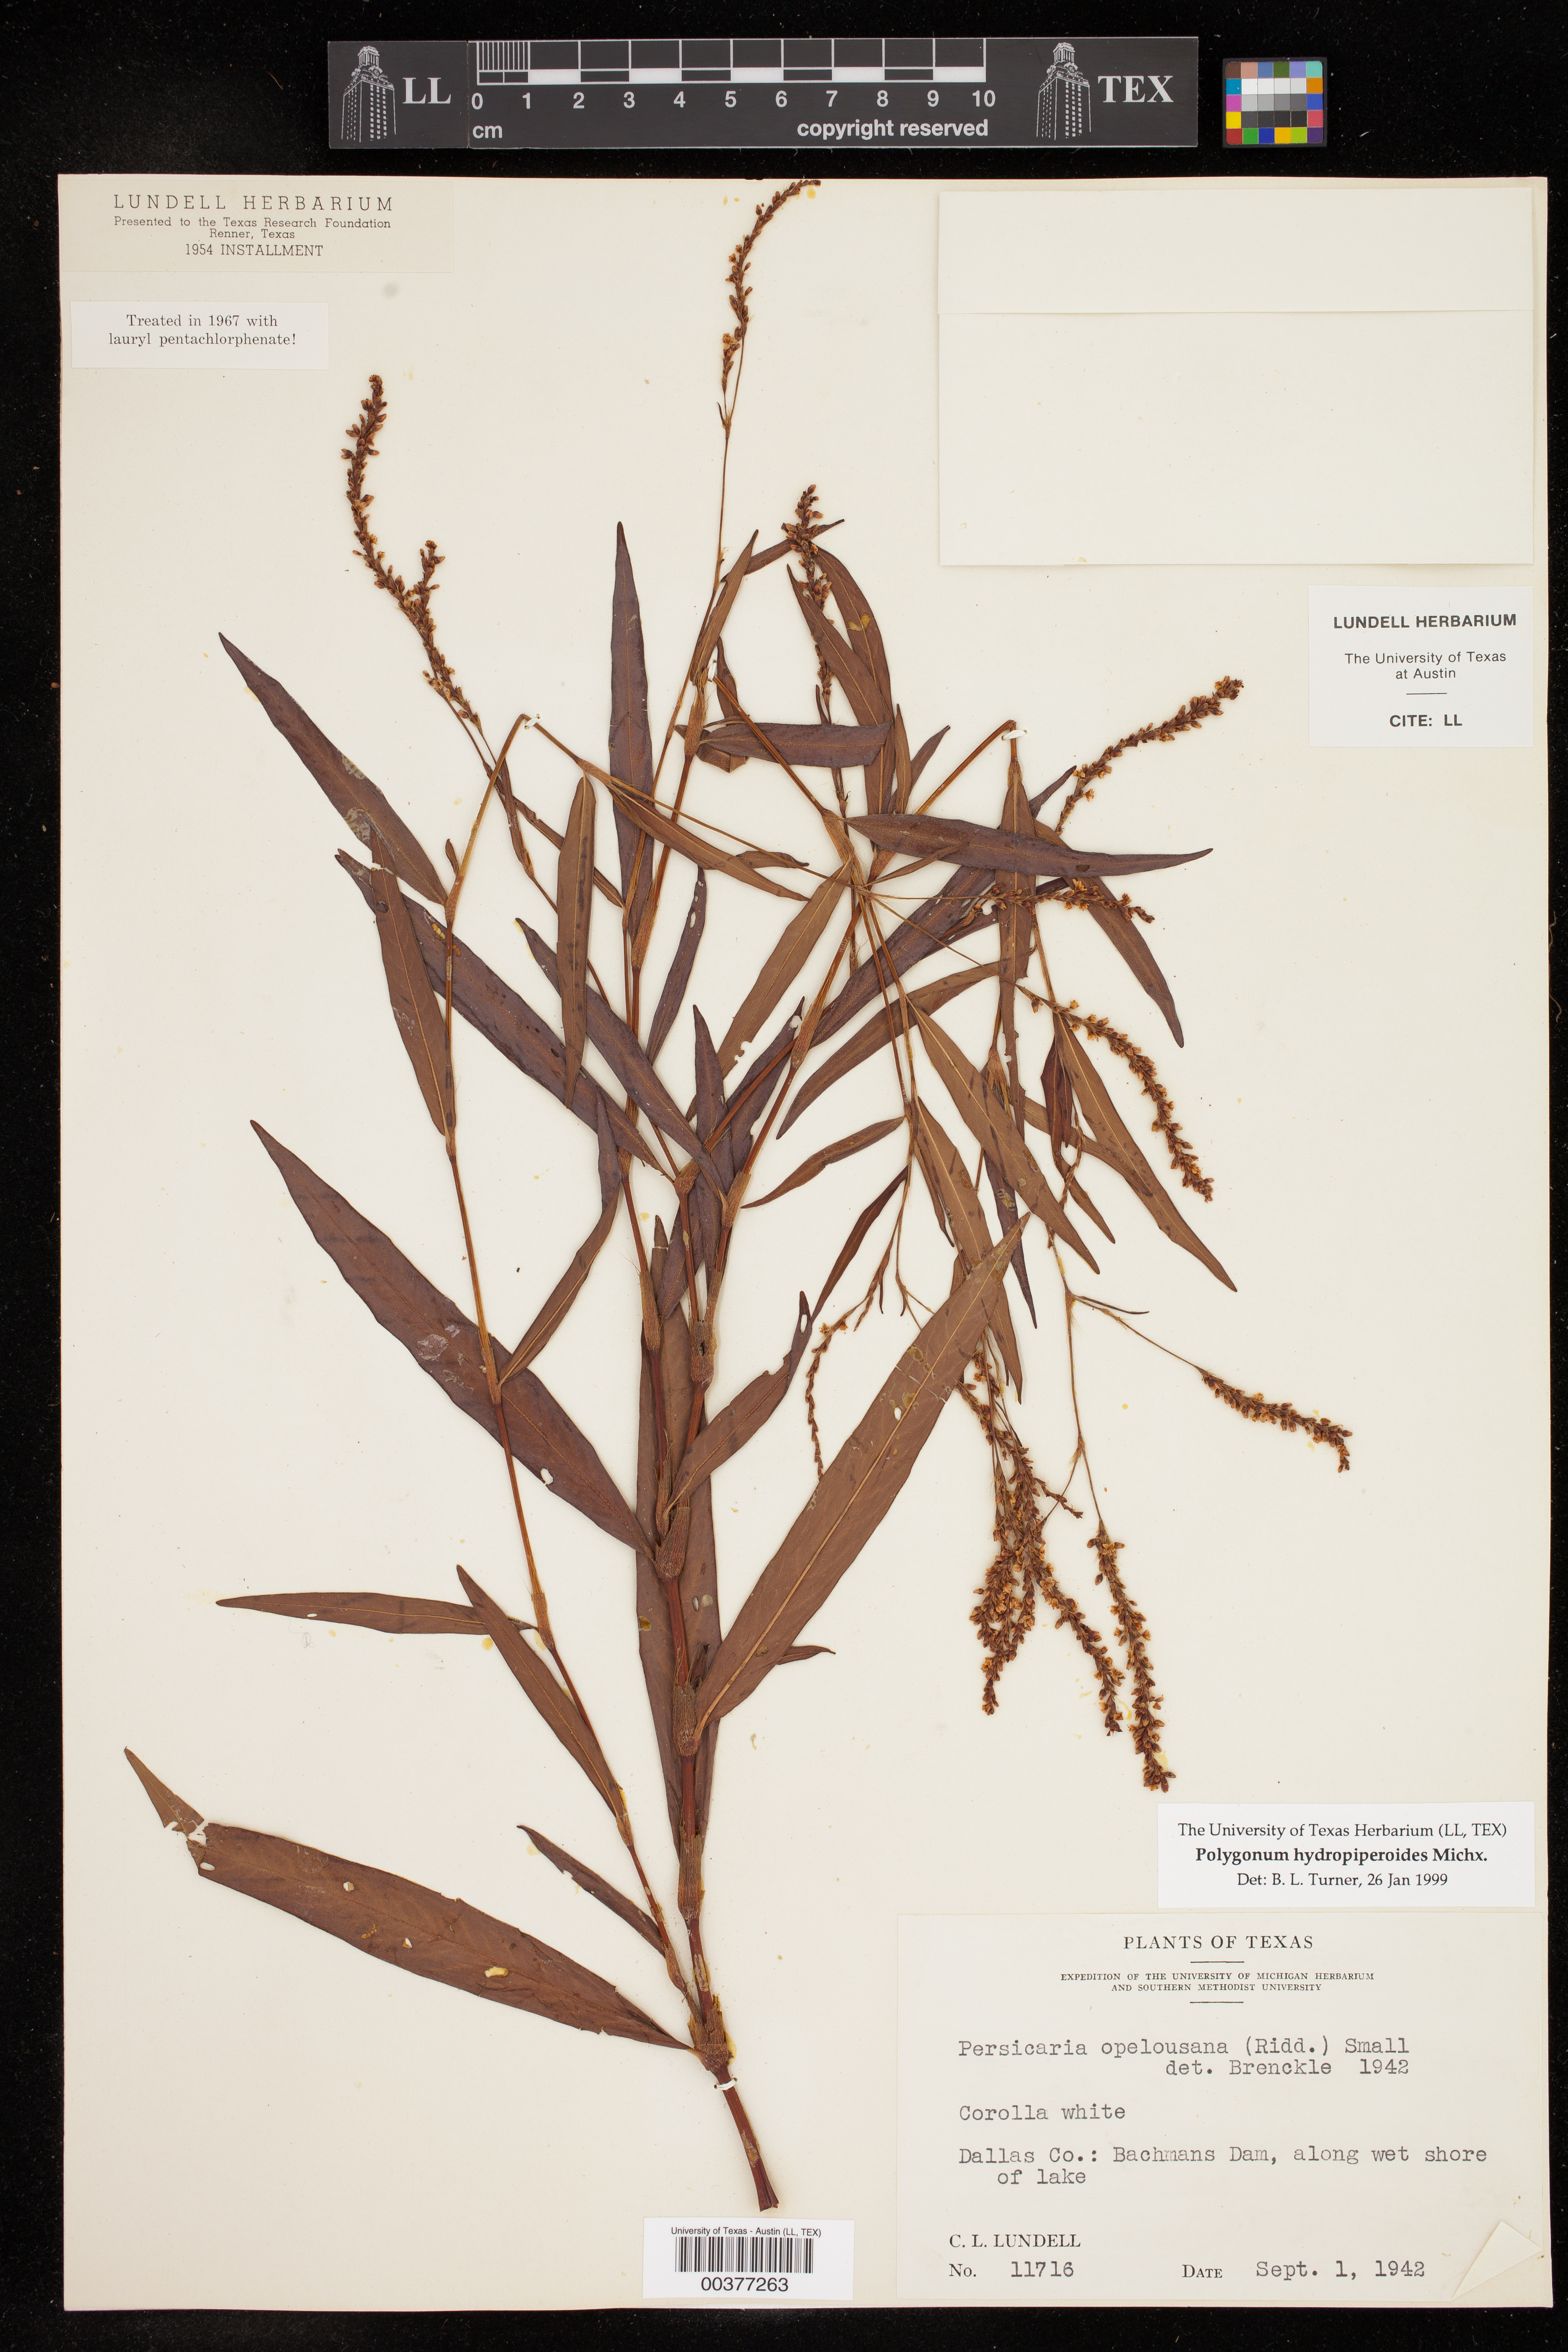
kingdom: Plantae
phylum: Tracheophyta
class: Magnoliopsida
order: Caryophyllales
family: Polygonaceae
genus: Persicaria
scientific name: Persicaria hydropiperoides
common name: Swamp smartweed
